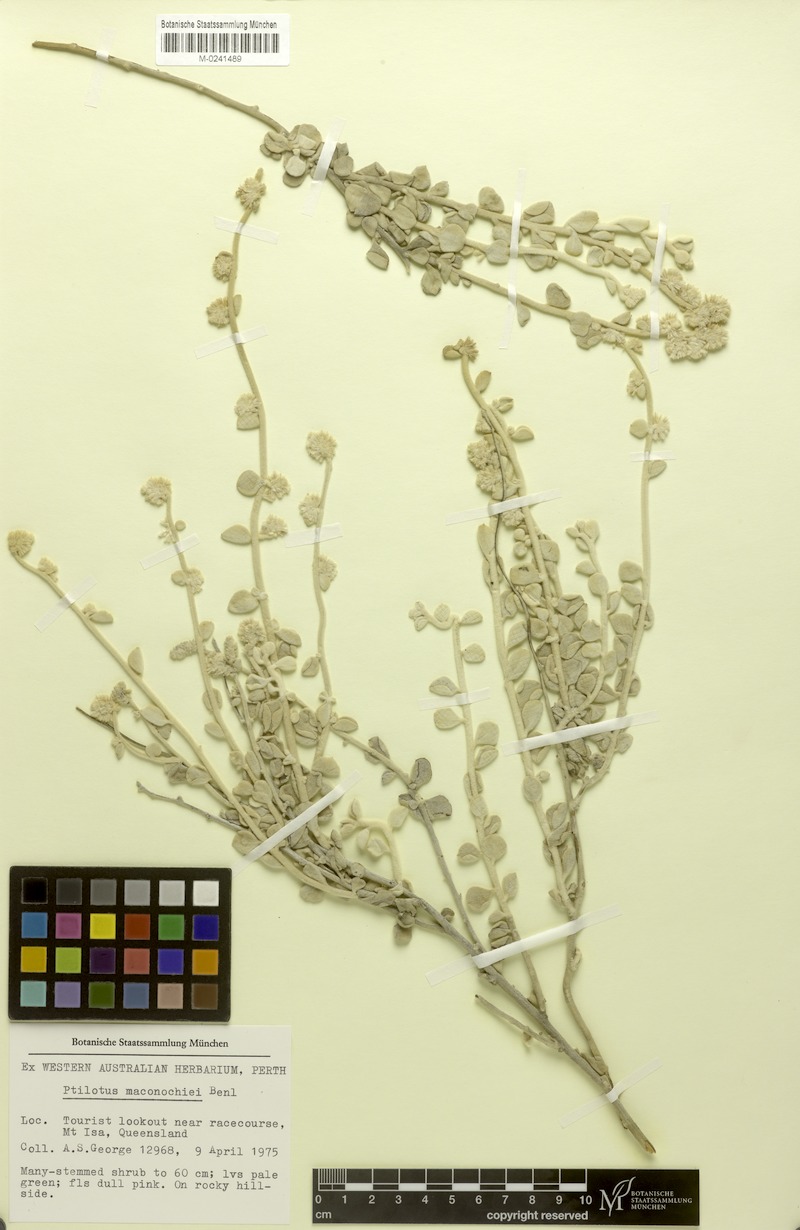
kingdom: Plantae
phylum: Tracheophyta
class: Magnoliopsida
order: Caryophyllales
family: Amaranthaceae
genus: Ptilotus
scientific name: Ptilotus maconochiei
